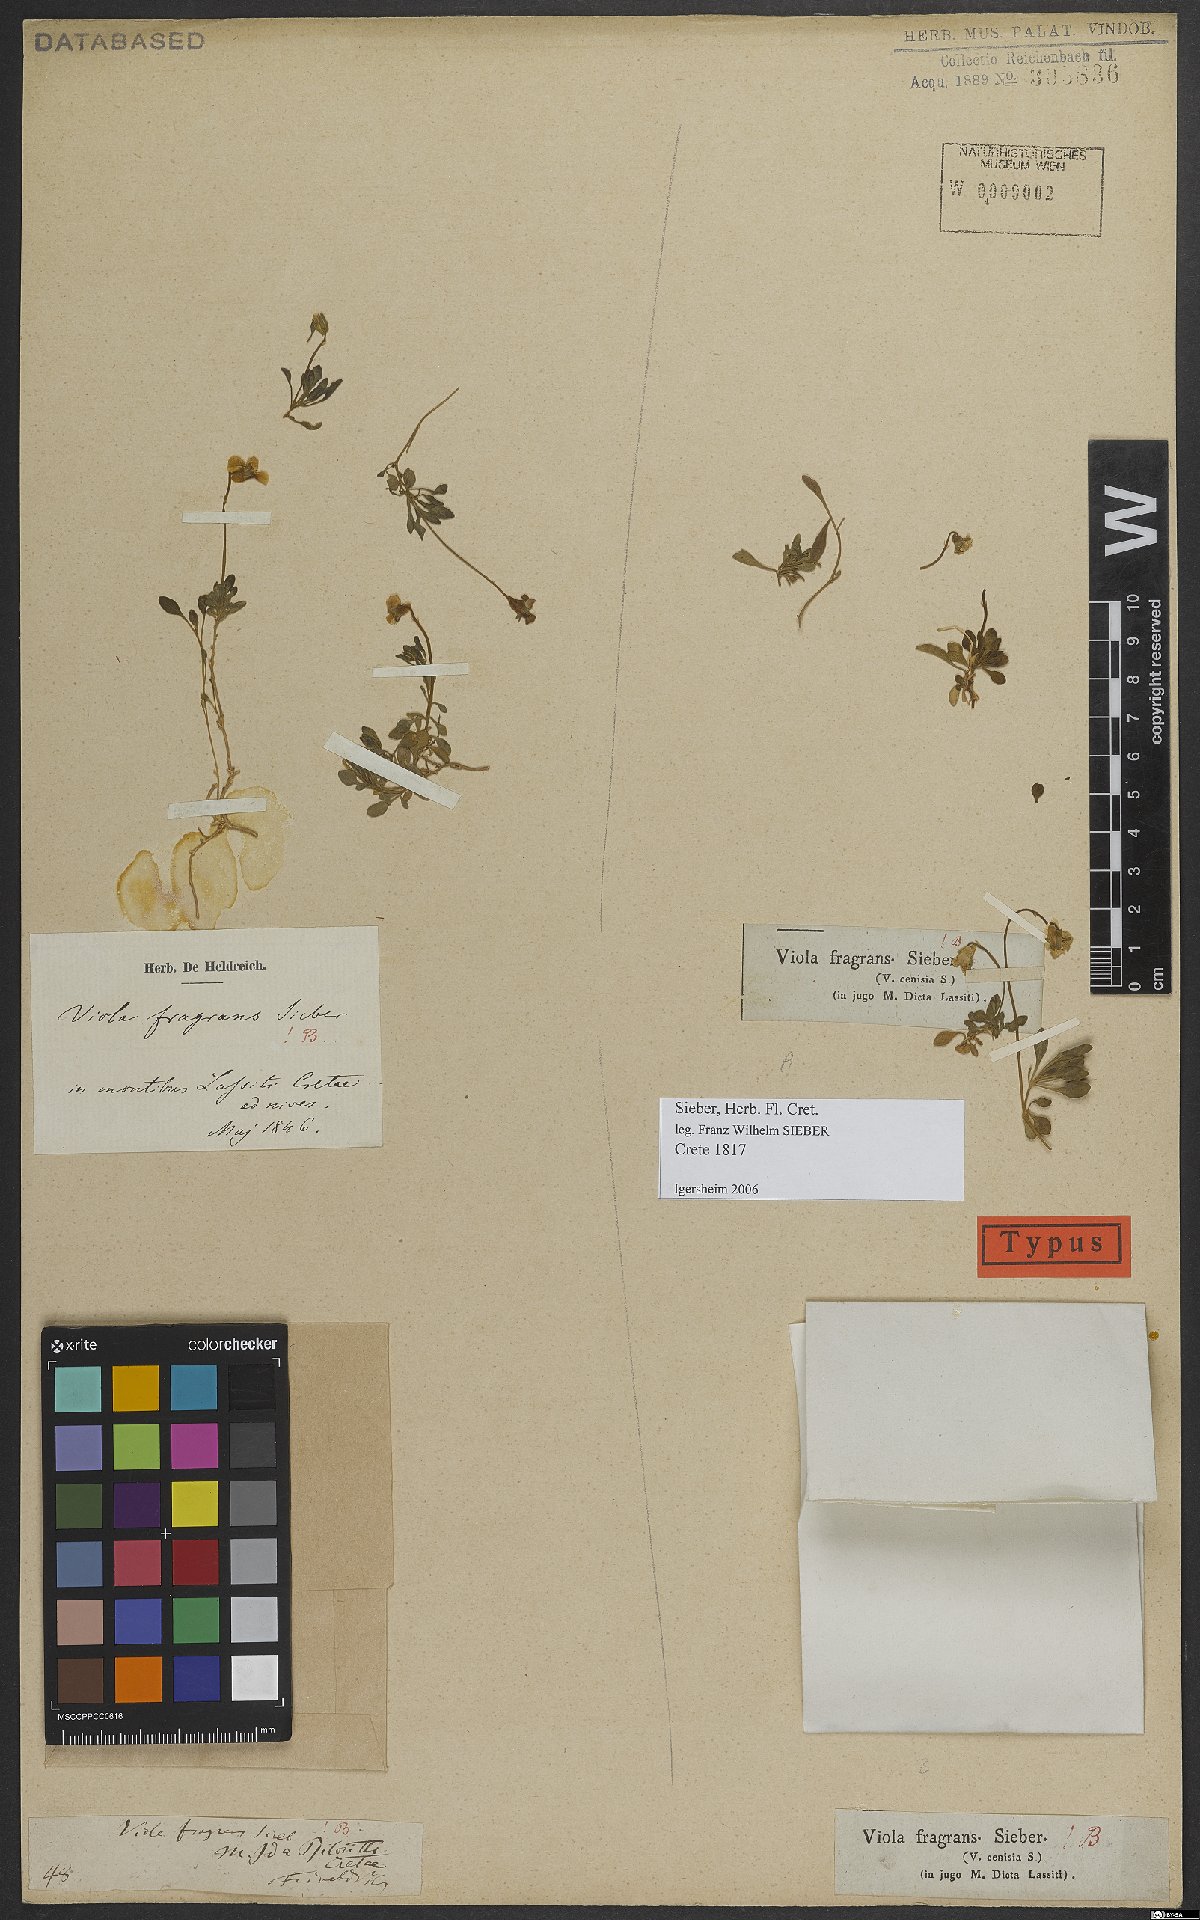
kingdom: Plantae
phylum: Tracheophyta
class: Magnoliopsida
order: Malpighiales
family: Violaceae
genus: Viola
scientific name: Viola fragrans
